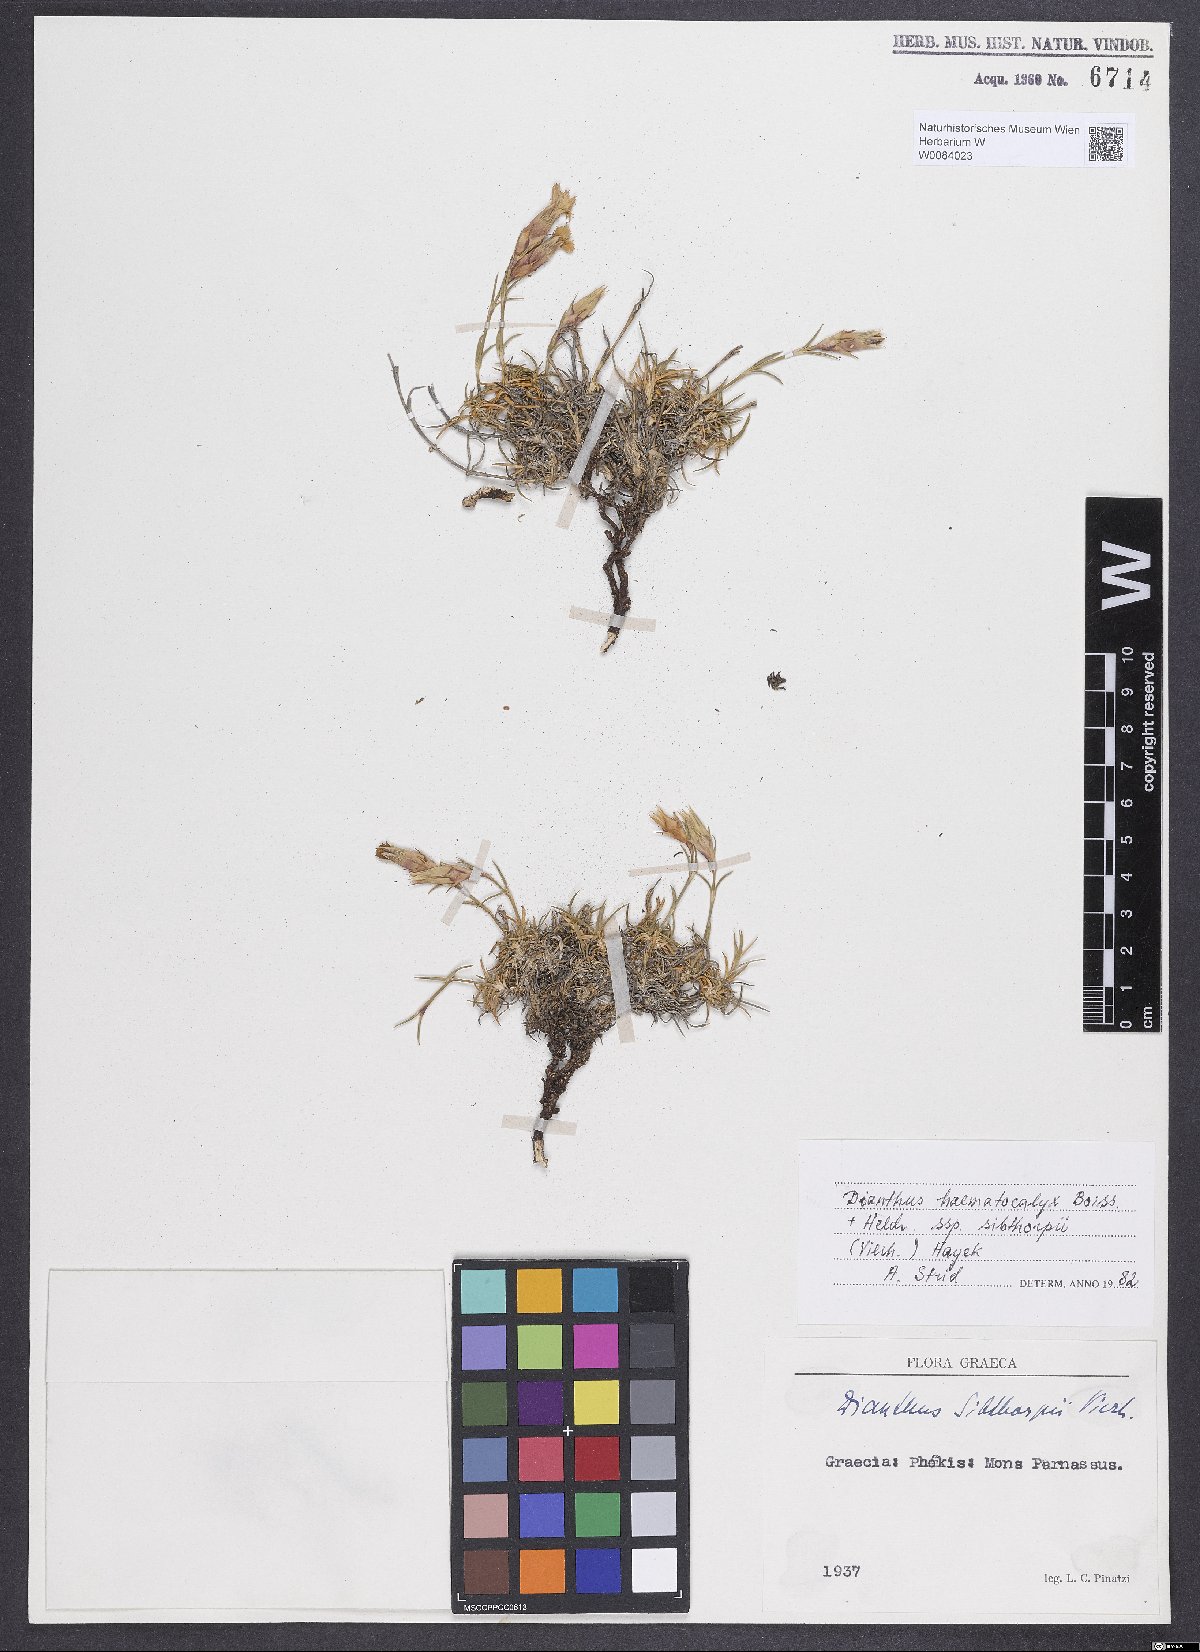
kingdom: Plantae
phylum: Tracheophyta
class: Magnoliopsida
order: Caryophyllales
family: Caryophyllaceae
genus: Dianthus
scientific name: Dianthus haematocalyx
